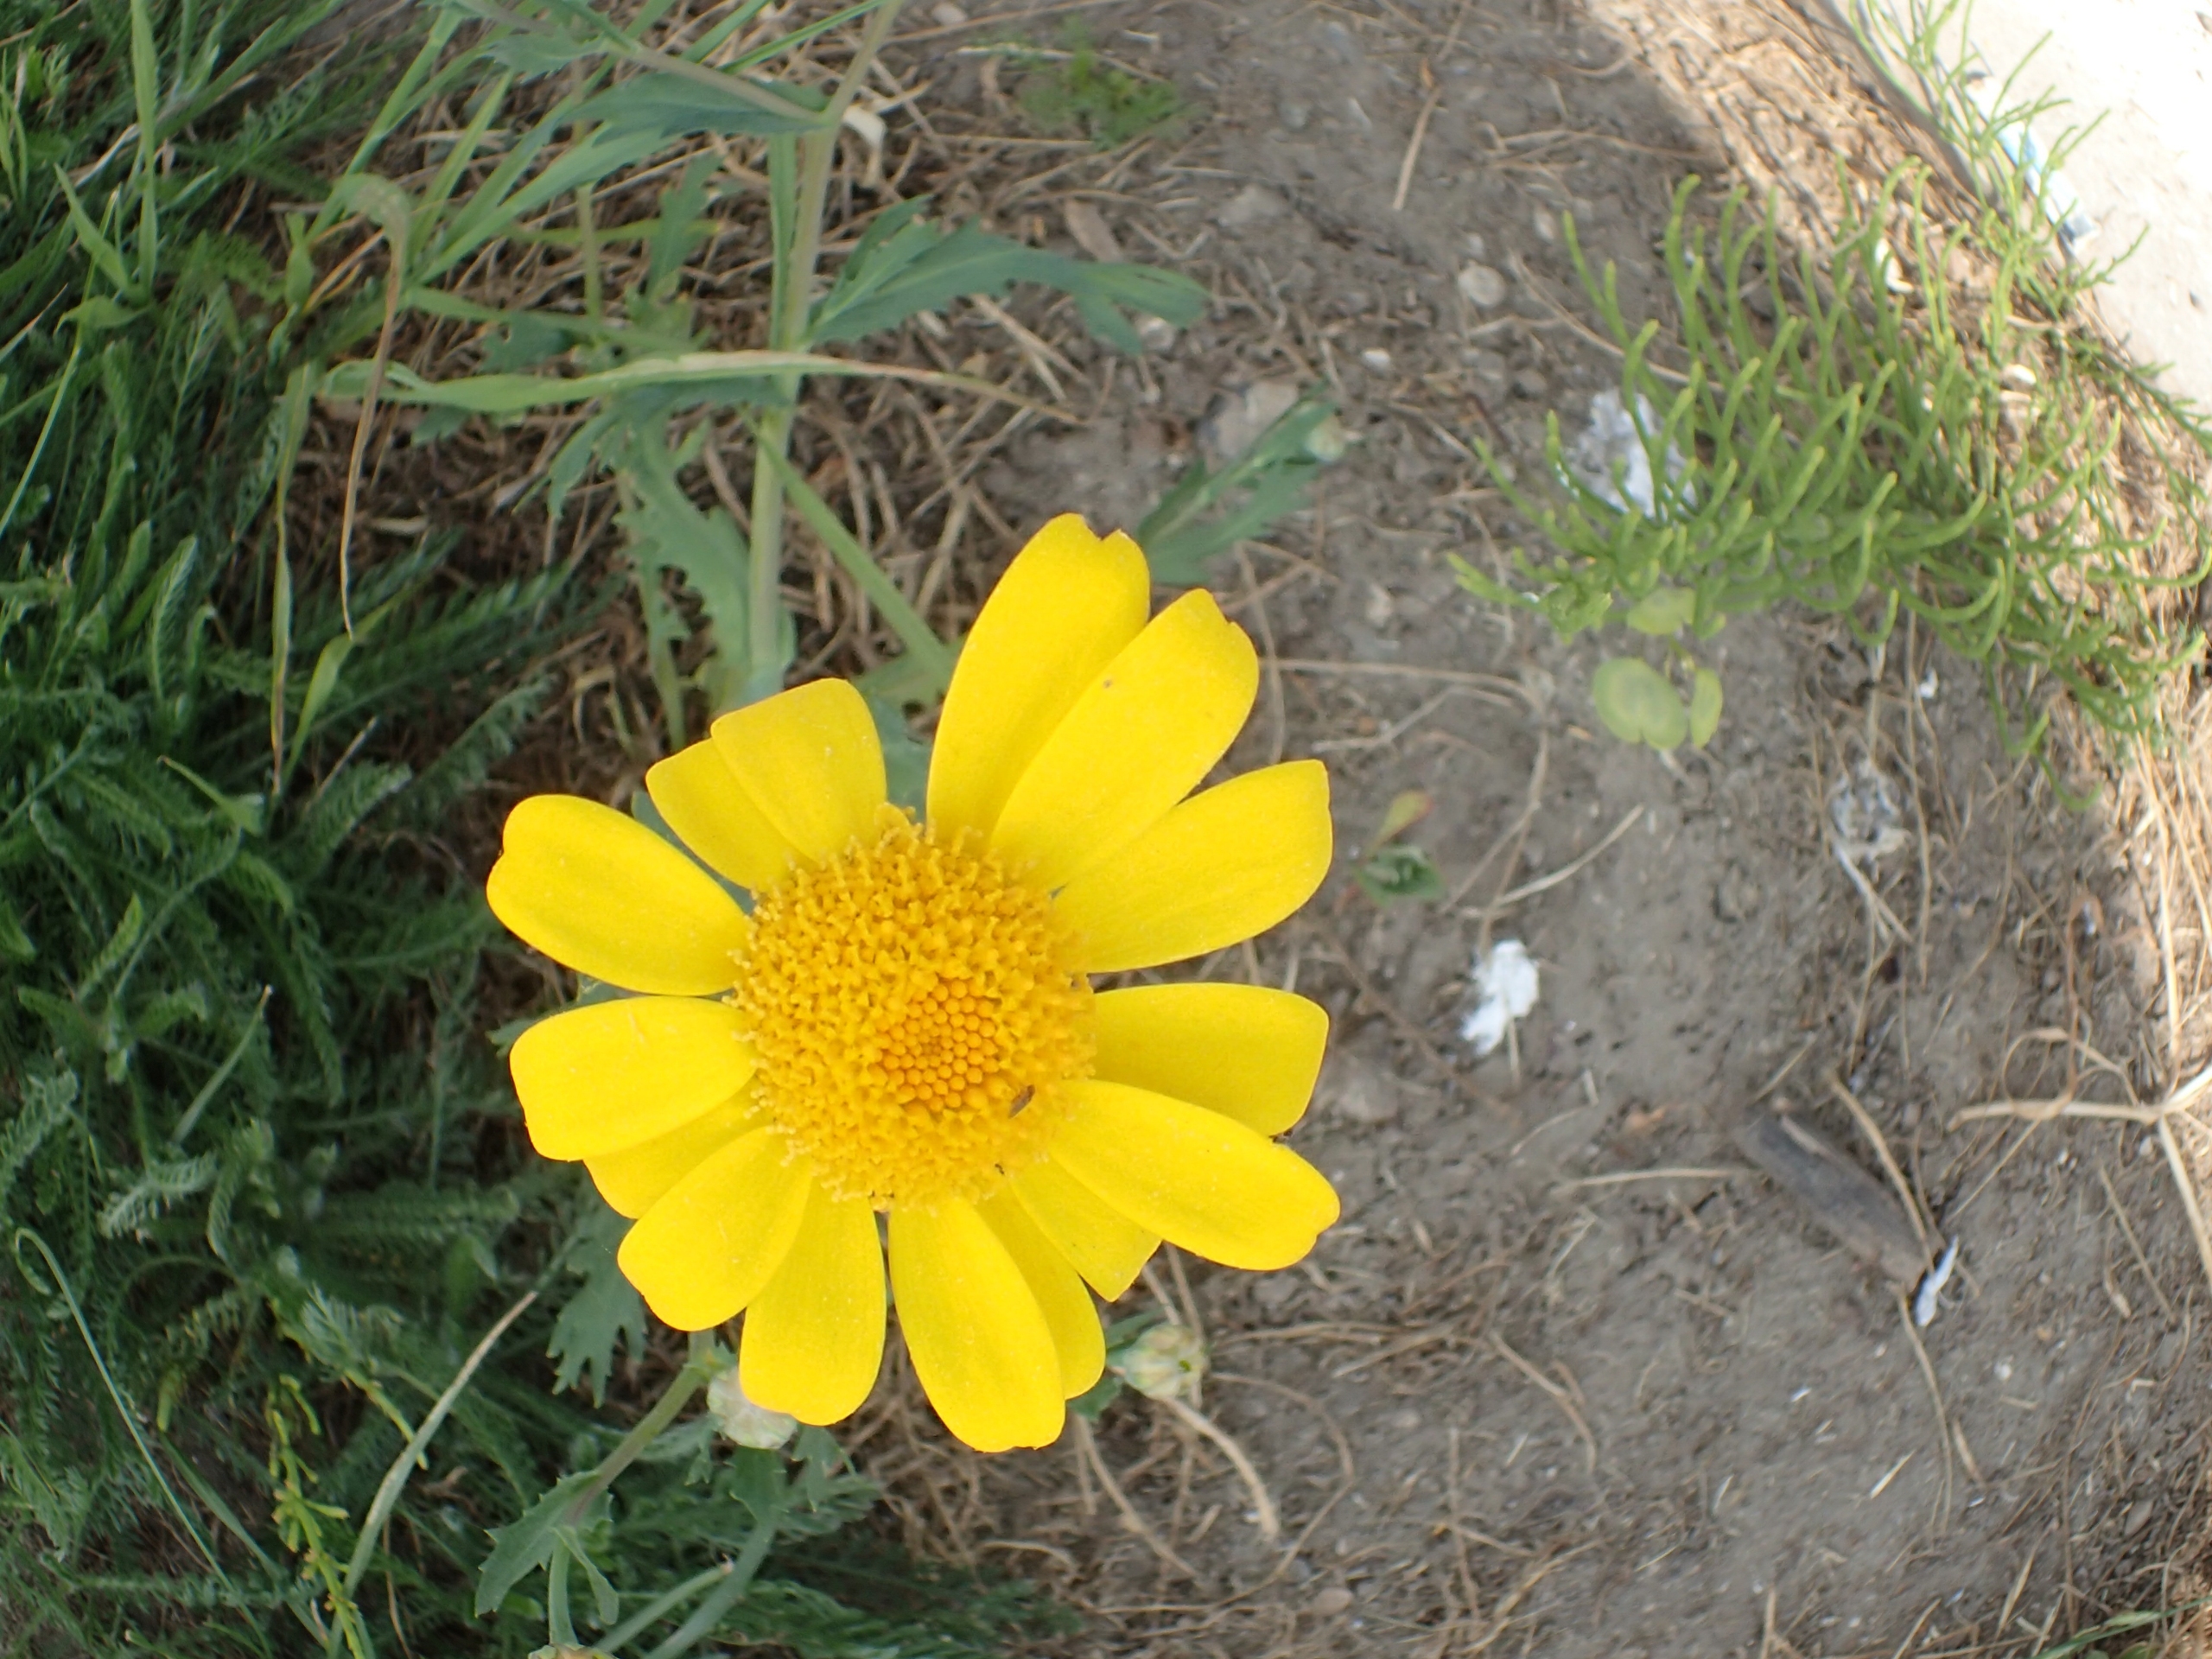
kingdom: Plantae
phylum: Tracheophyta
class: Magnoliopsida
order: Asterales
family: Asteraceae
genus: Glebionis
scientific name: Glebionis segetum
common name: Gul okseøje
